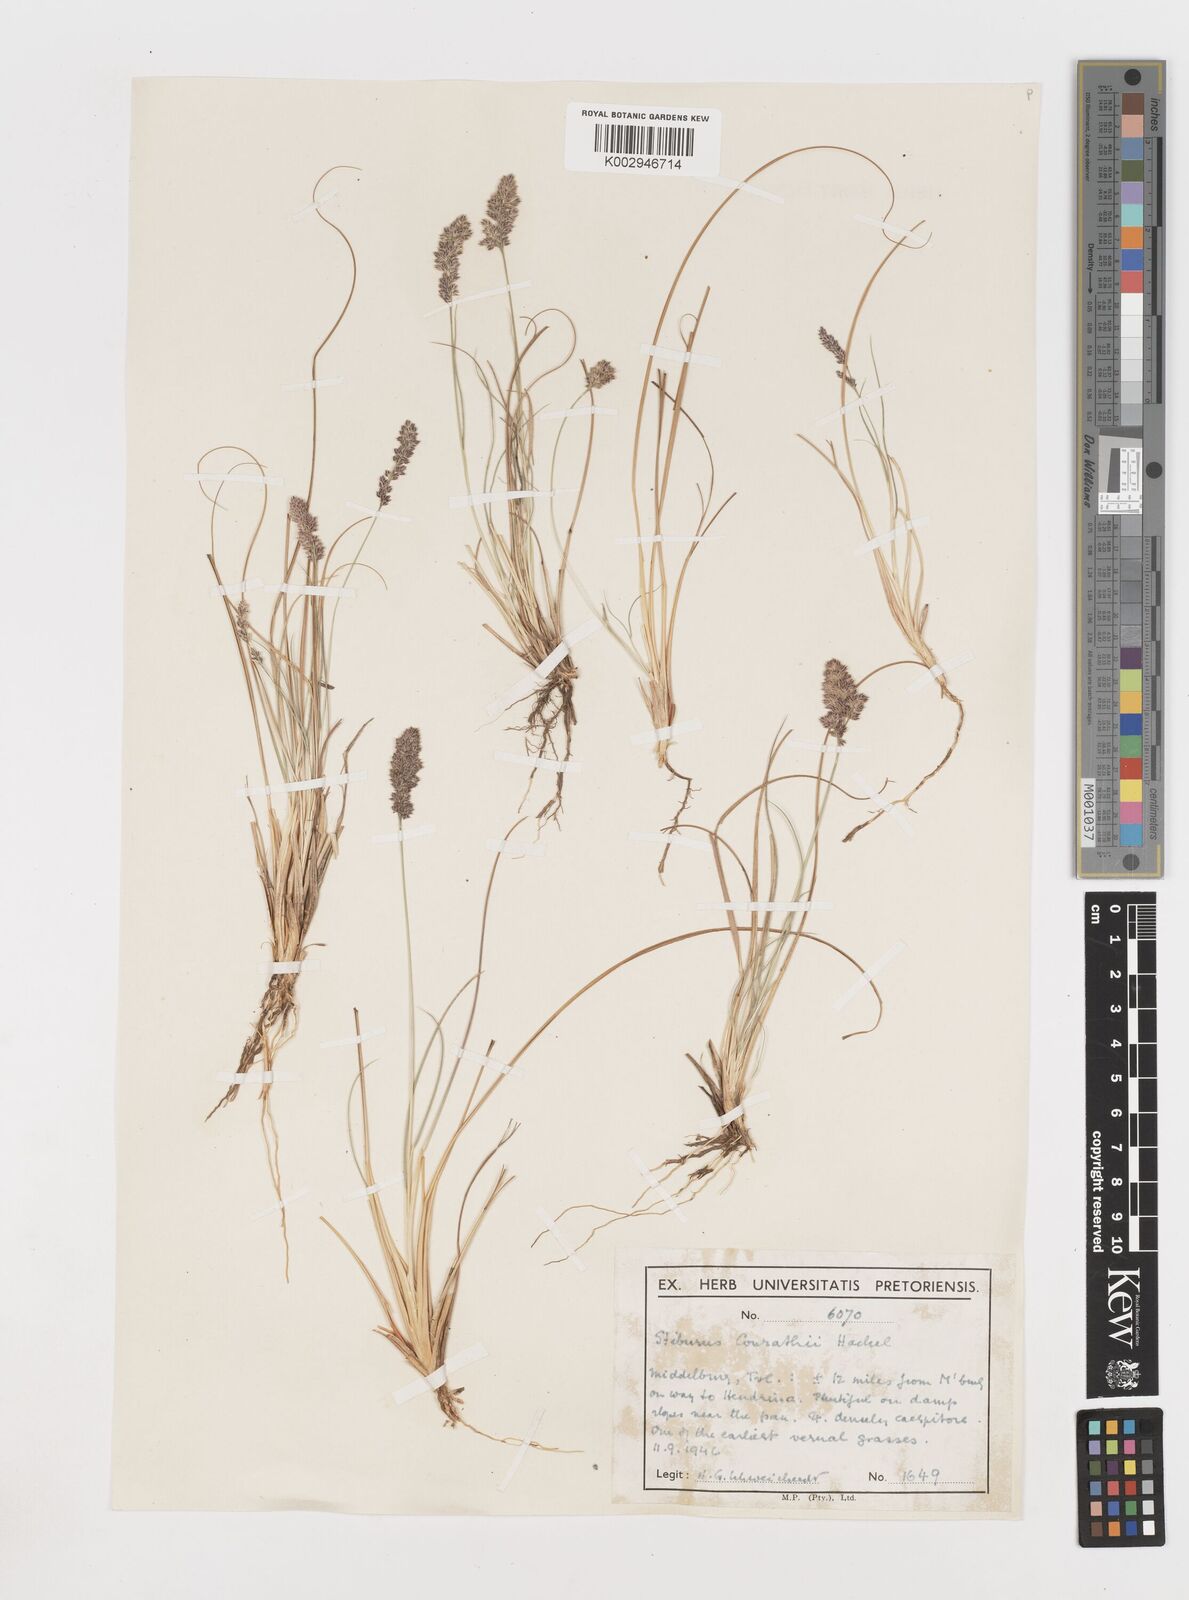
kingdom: Plantae
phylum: Tracheophyta
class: Liliopsida
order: Poales
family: Poaceae
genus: Stiburus
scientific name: Stiburus conrathii
